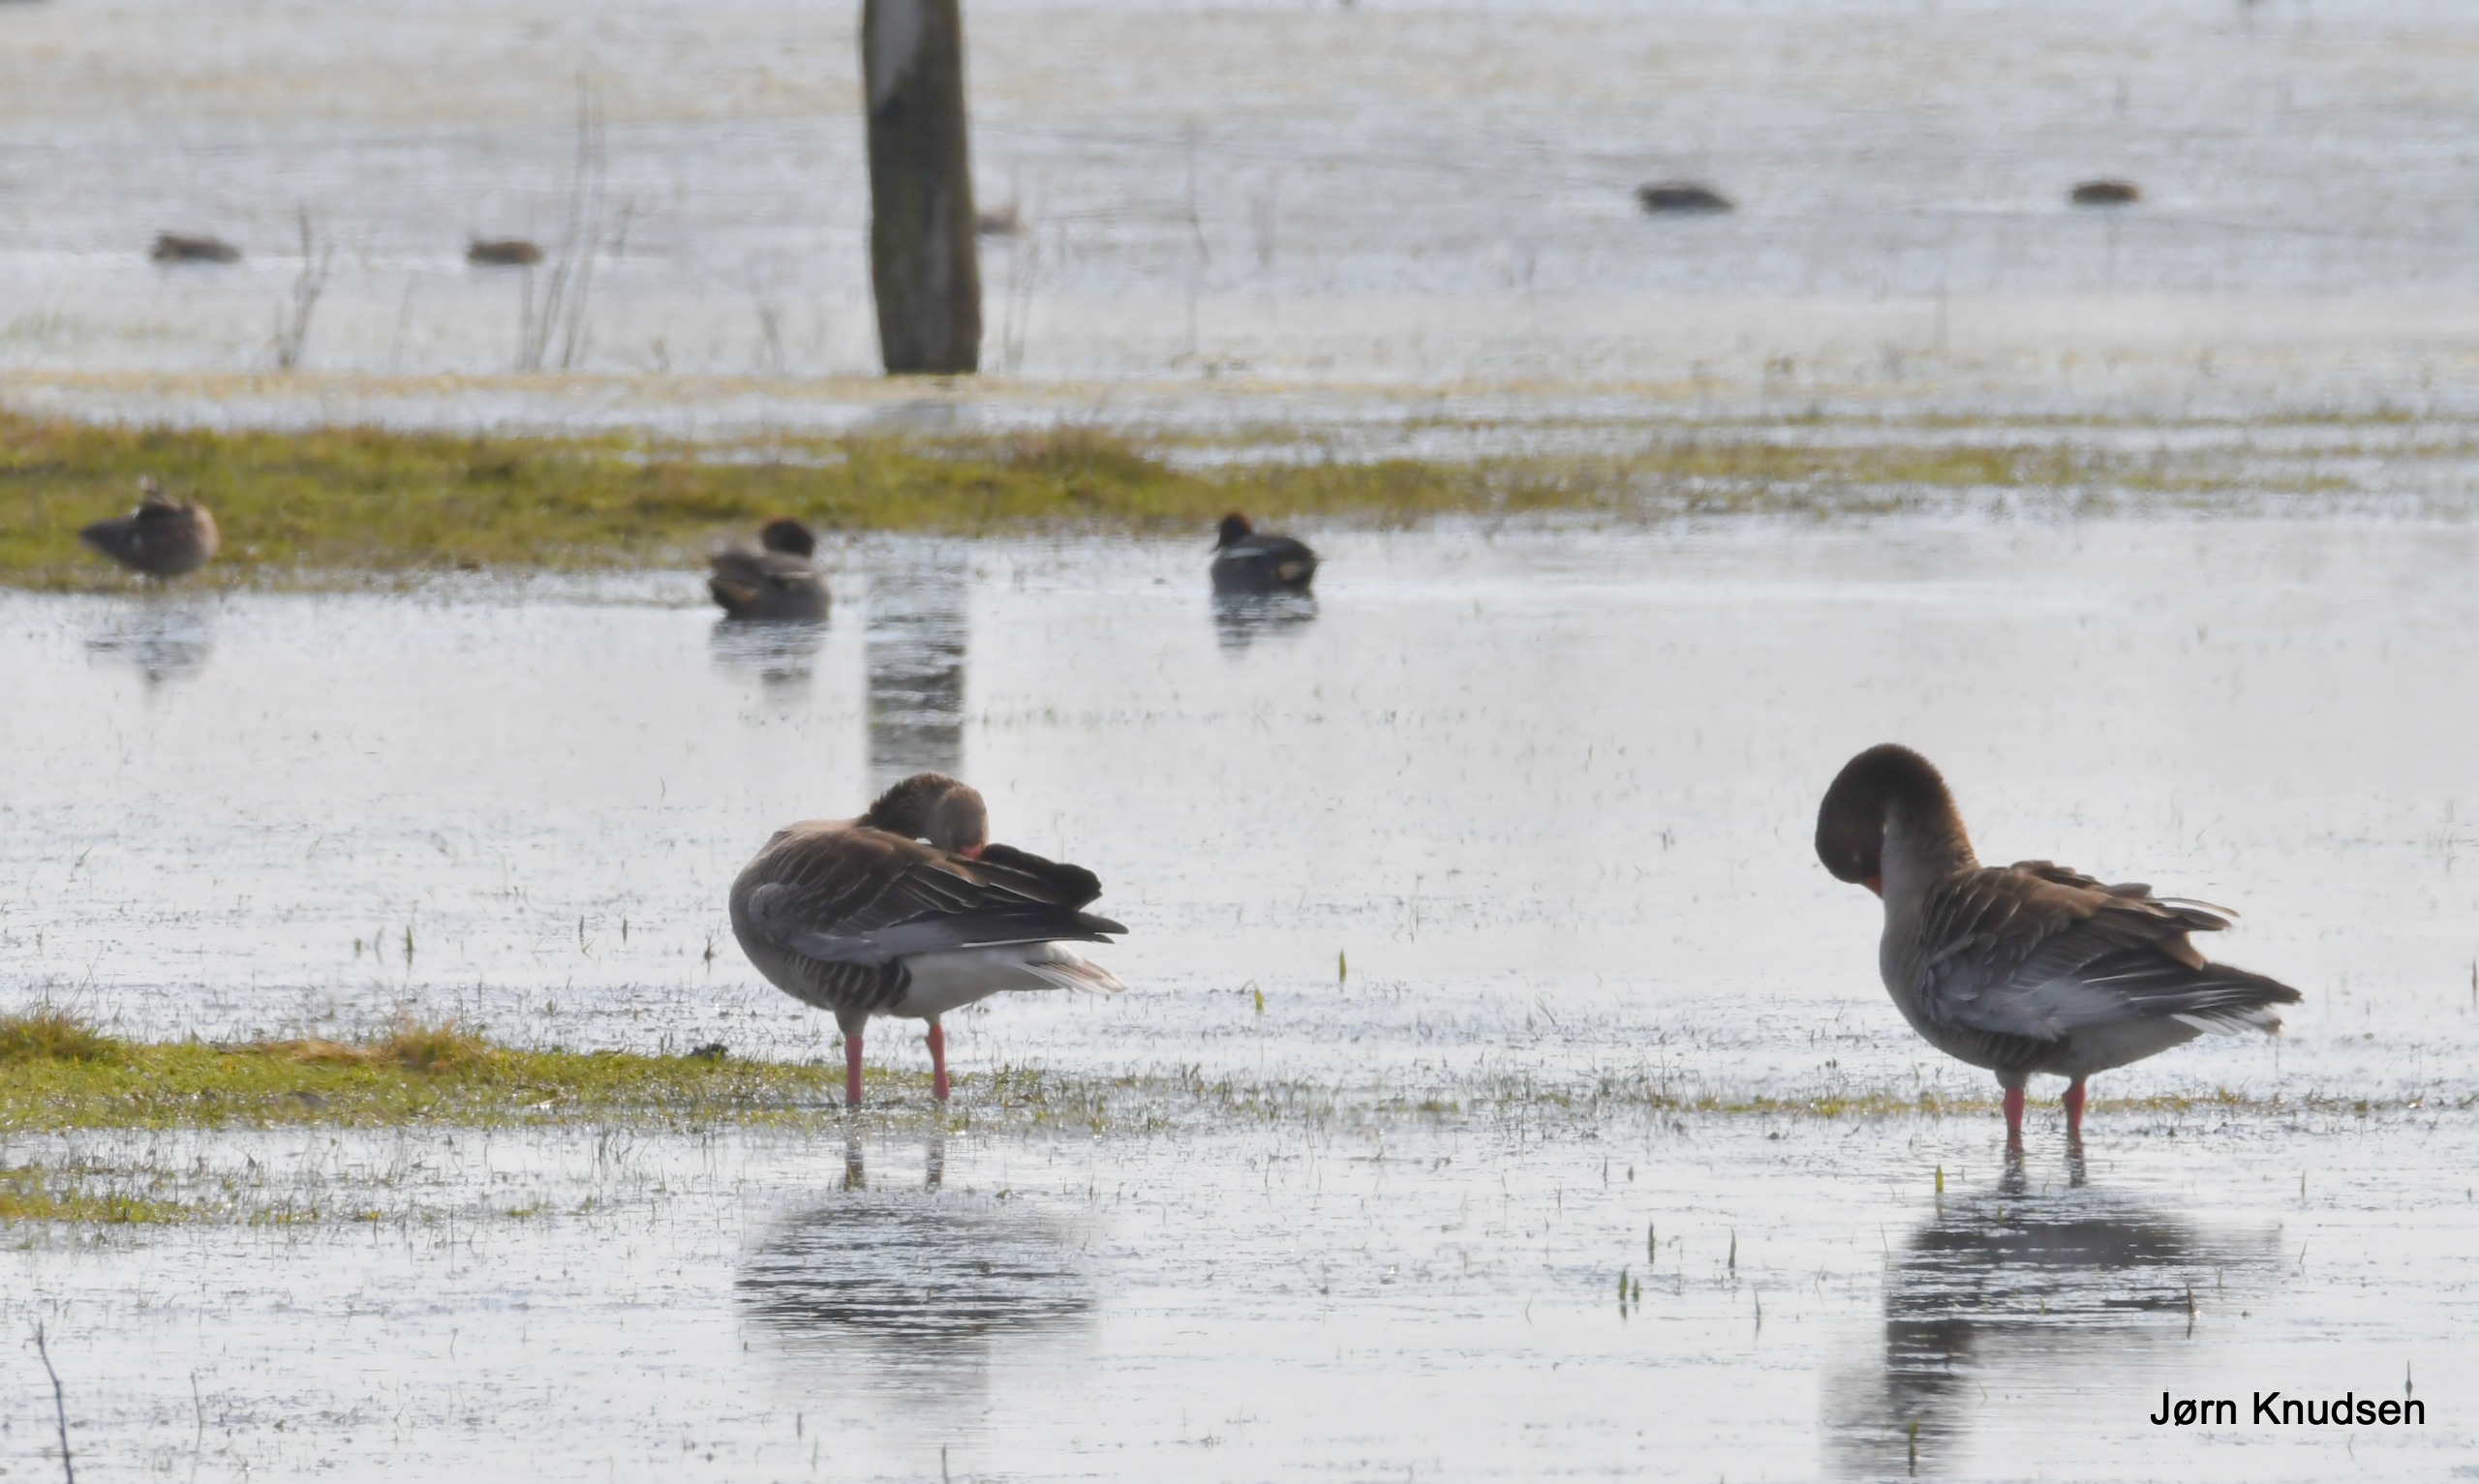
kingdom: Animalia
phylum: Chordata
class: Aves
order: Anseriformes
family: Anatidae
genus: Anser
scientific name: Anser anser
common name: Grågås
